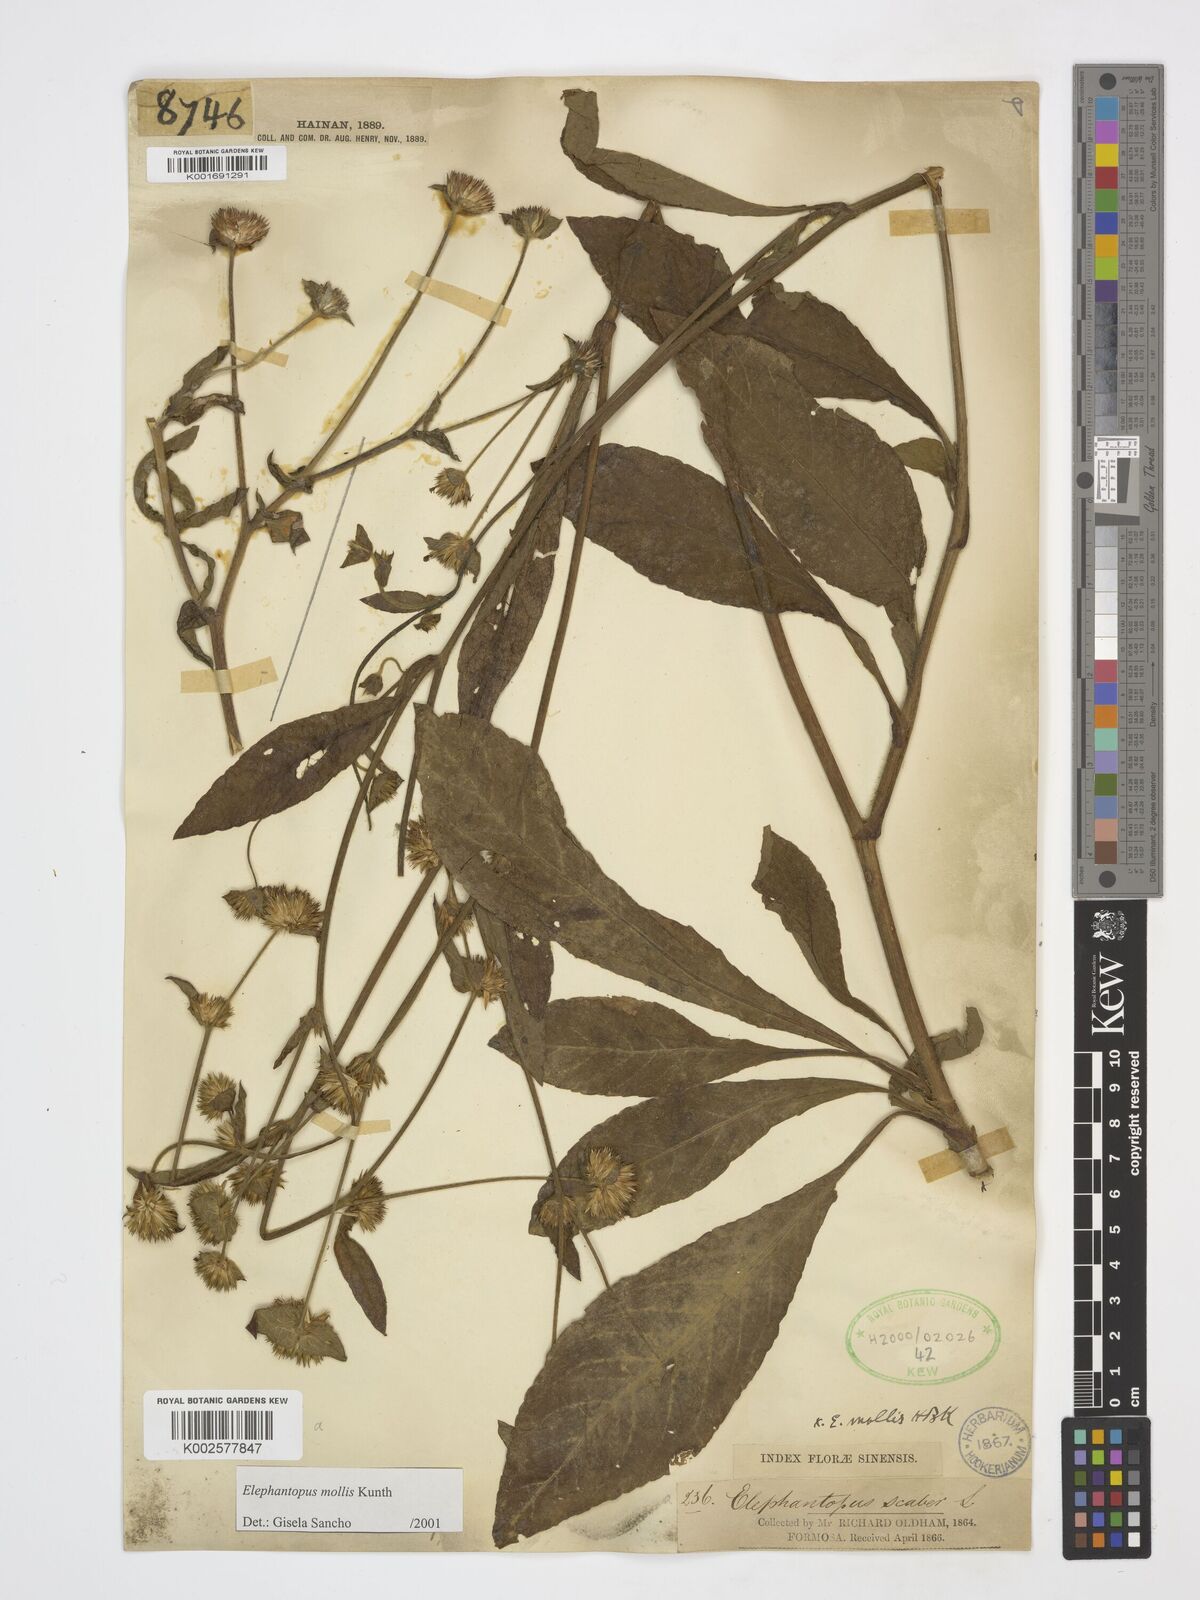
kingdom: Plantae
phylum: Tracheophyta
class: Magnoliopsida
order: Asterales
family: Asteraceae
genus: Elephantopus
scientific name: Elephantopus mollis
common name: Soft elephantsfoot
